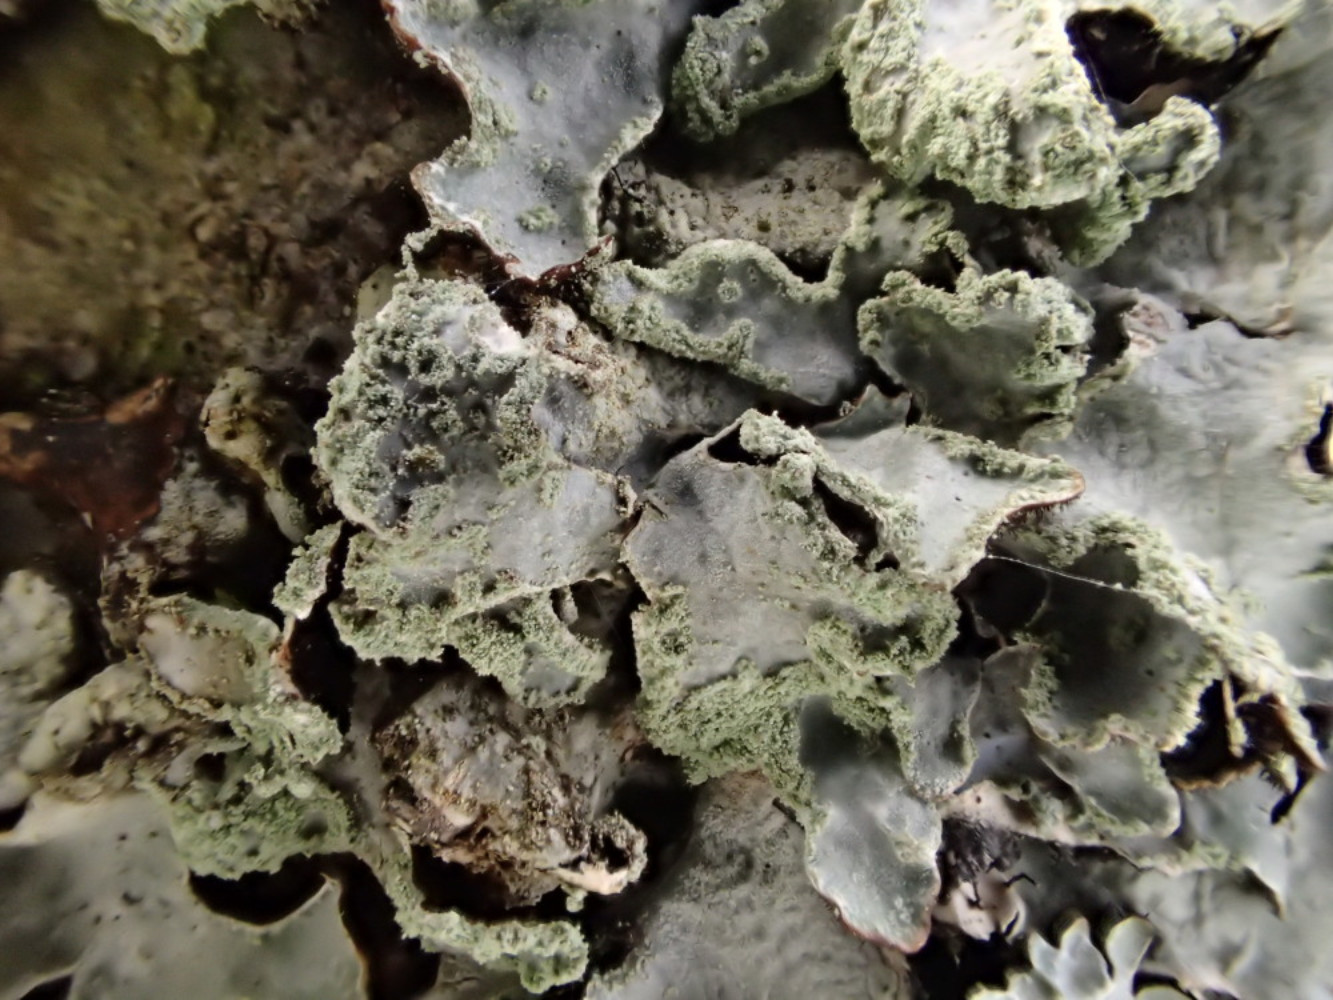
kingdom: Fungi
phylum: Ascomycota
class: Lecanoromycetes
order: Lecanorales
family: Parmeliaceae
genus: Parmelia
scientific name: Parmelia sulcata
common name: rynket skållav
